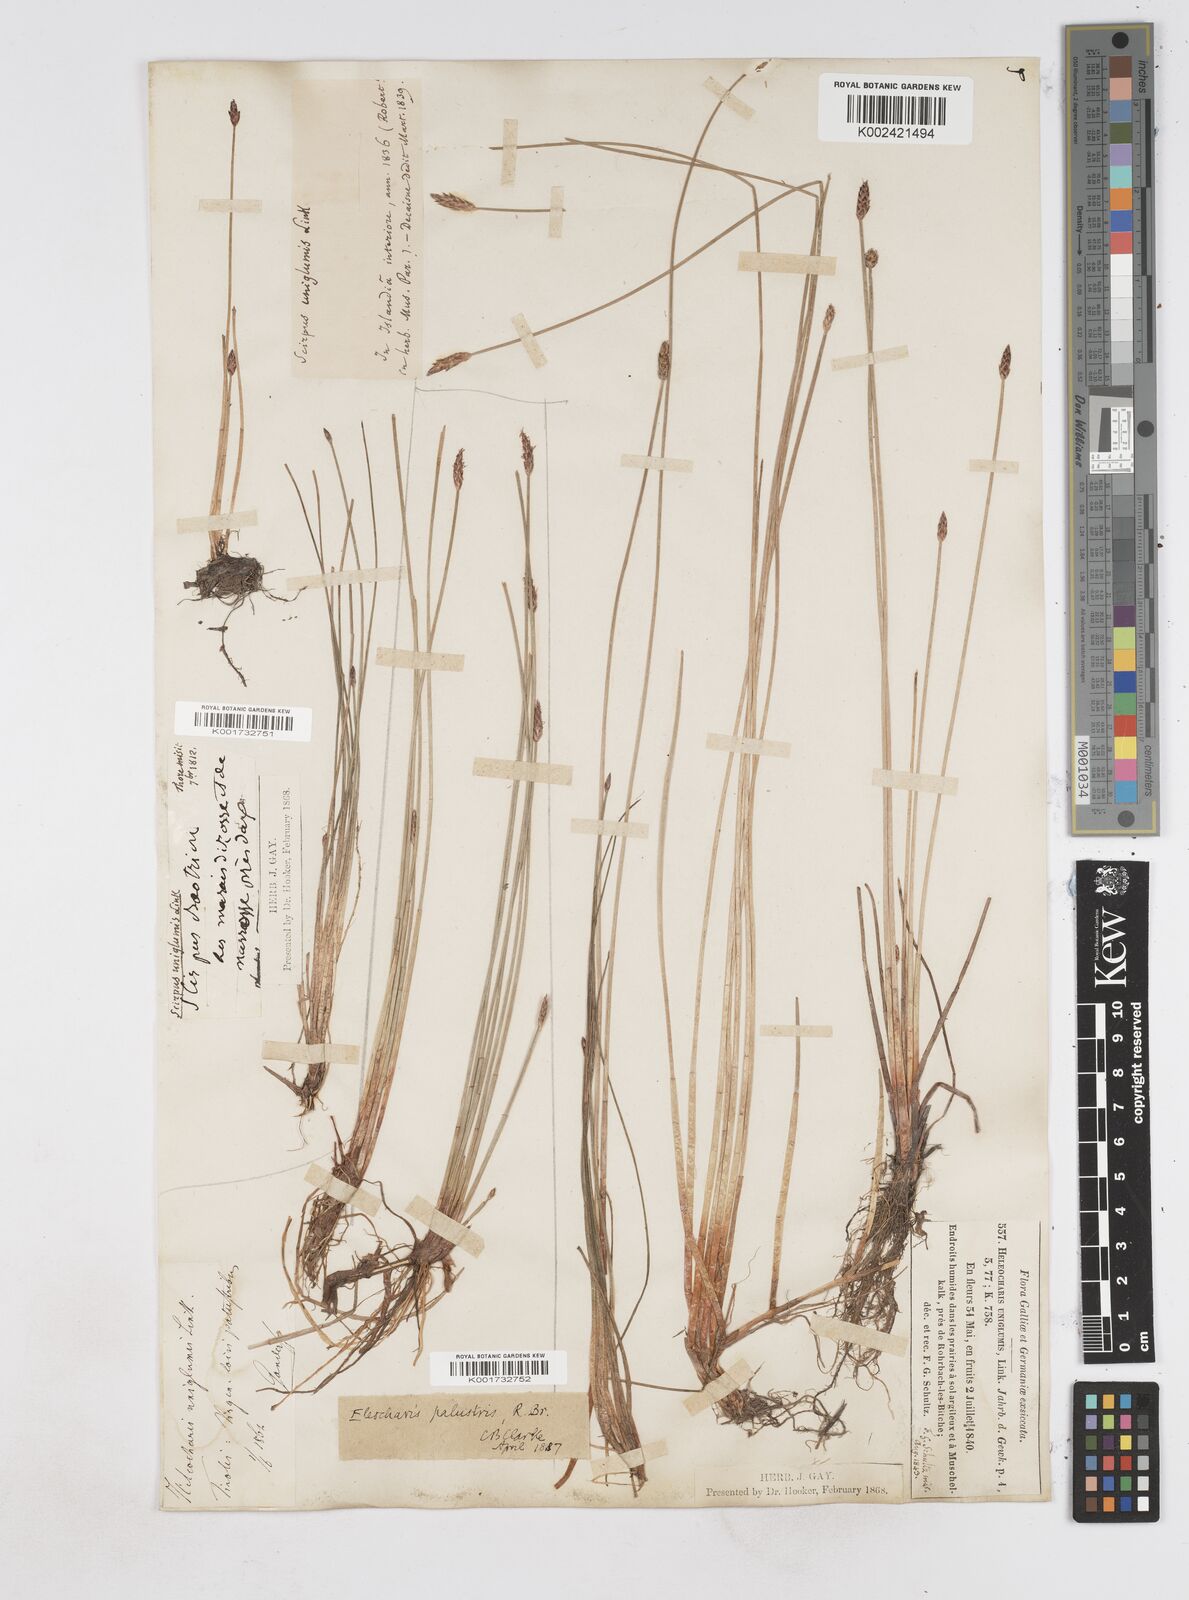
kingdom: Plantae
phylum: Tracheophyta
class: Liliopsida
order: Poales
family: Cyperaceae
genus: Eleocharis
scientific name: Eleocharis uniglumis
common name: Slender spike-rush
